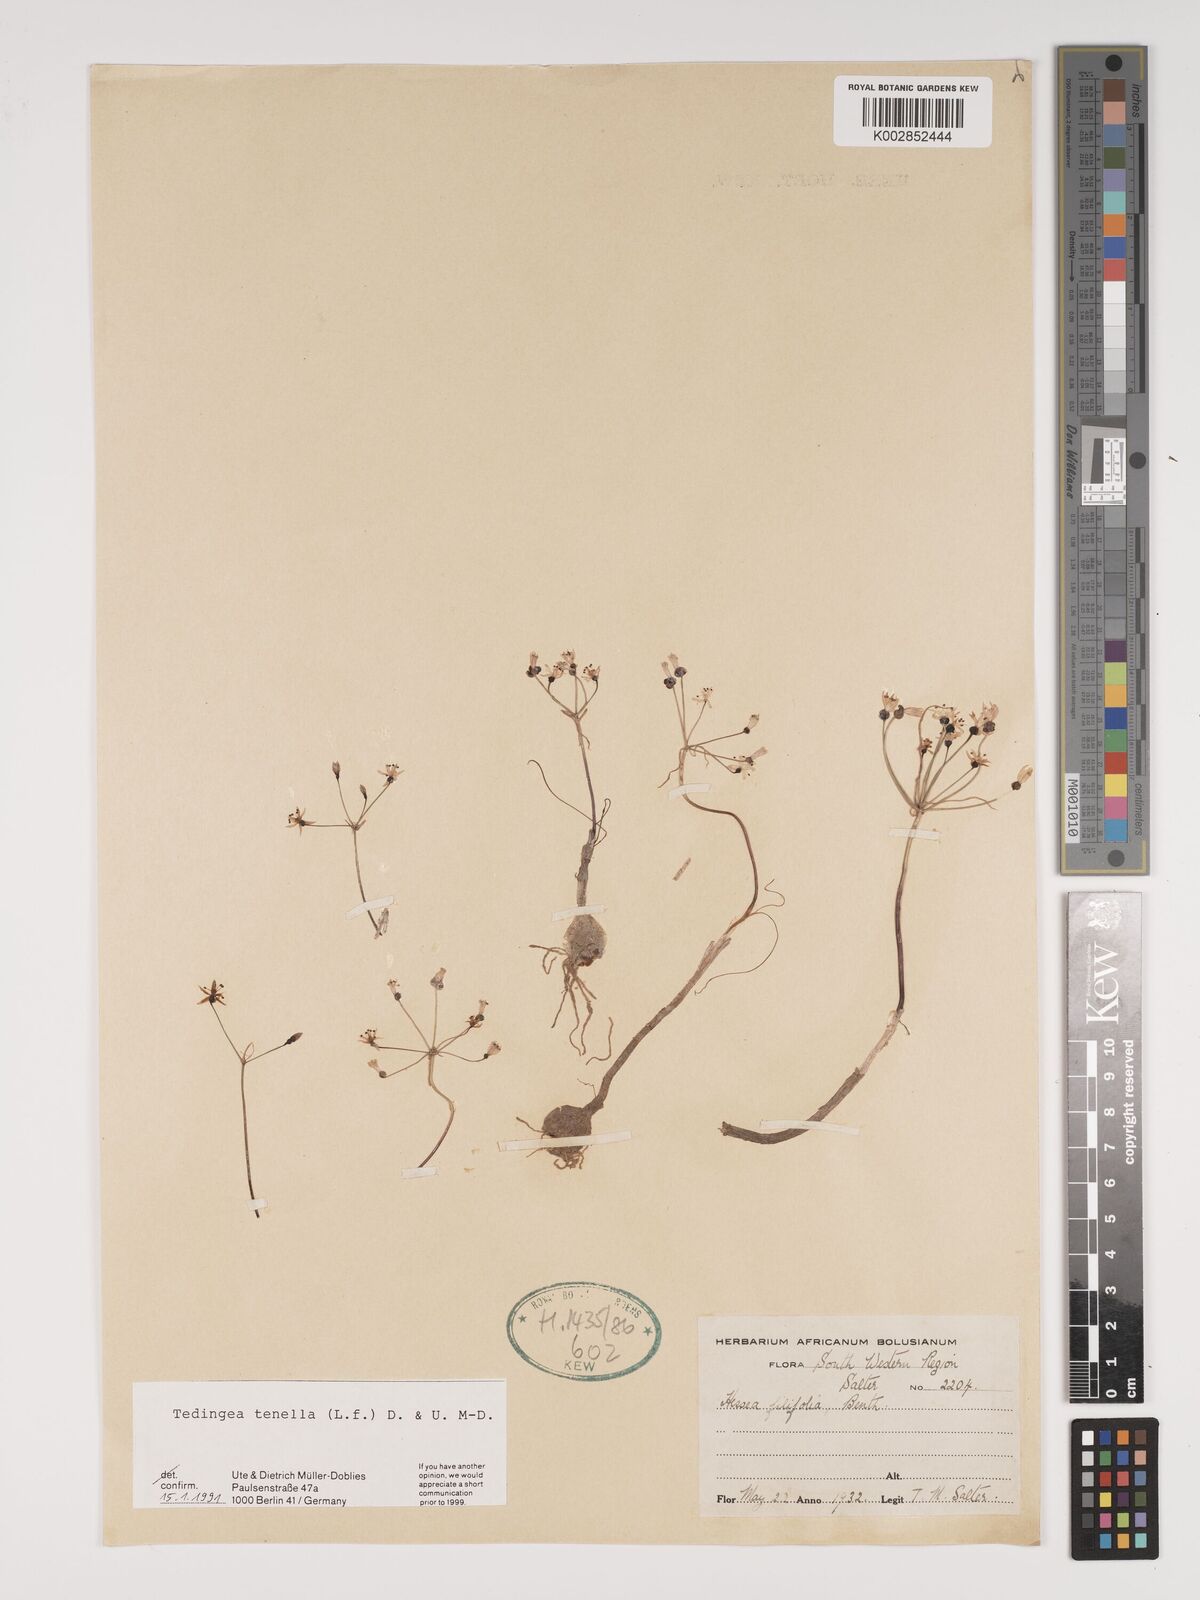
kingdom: Plantae
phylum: Tracheophyta
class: Liliopsida
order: Asparagales
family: Amaryllidaceae
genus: Strumaria
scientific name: Strumaria tenella
